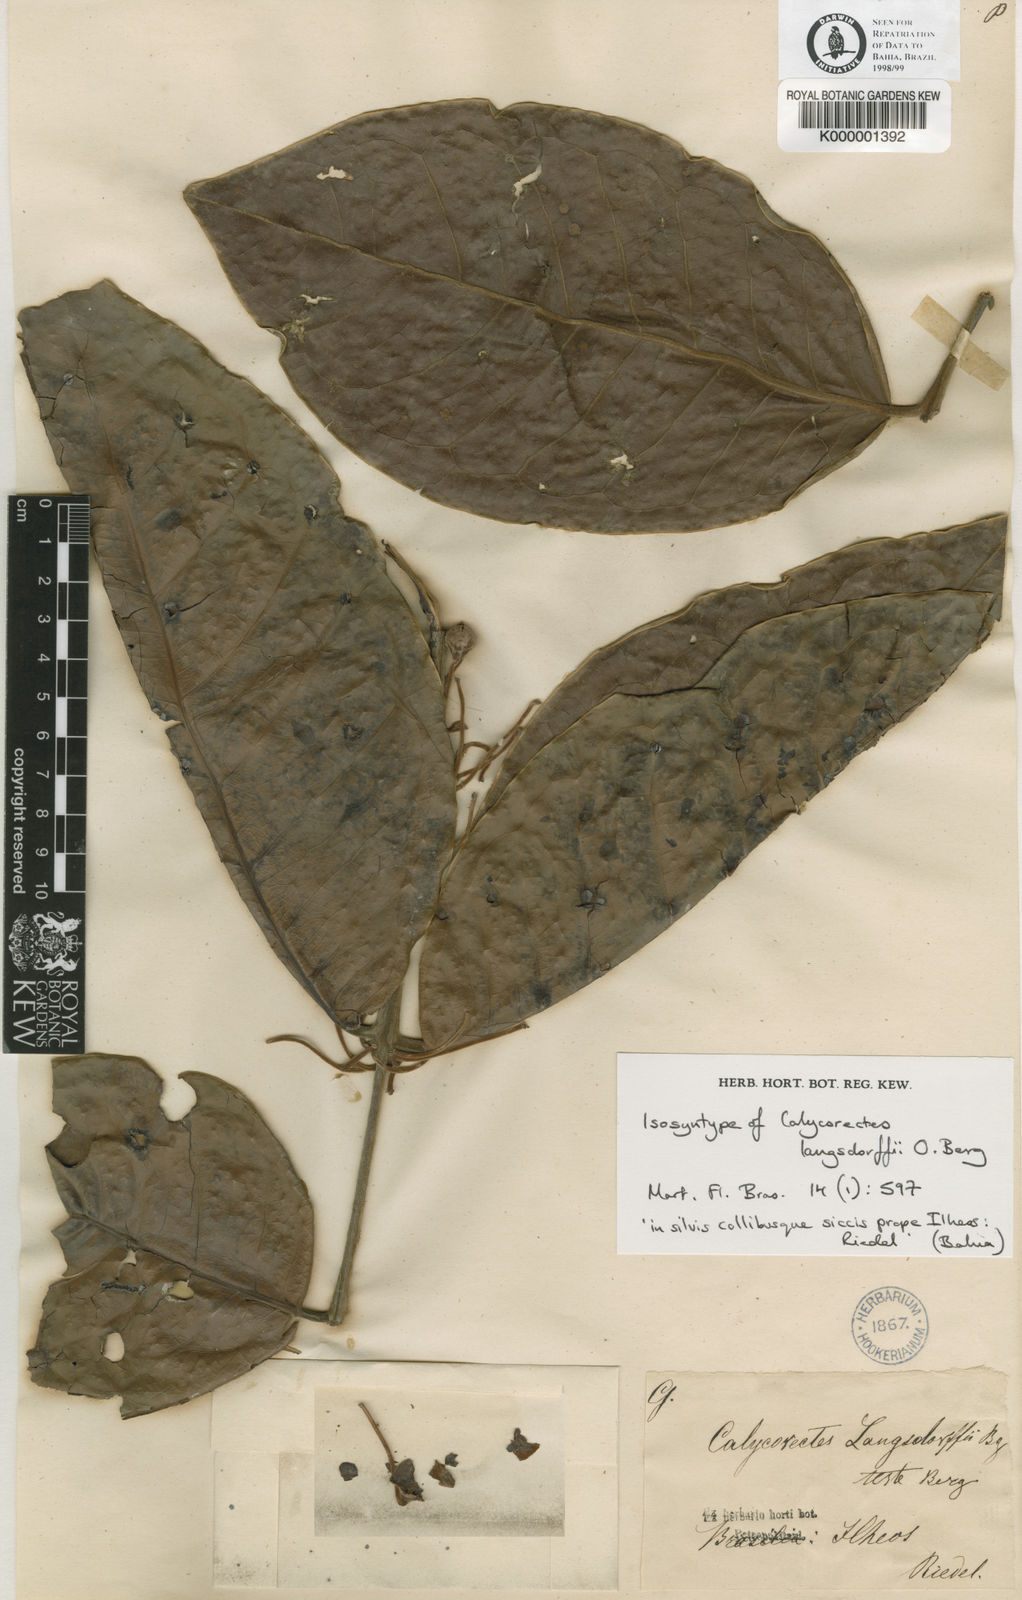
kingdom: Plantae
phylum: Tracheophyta
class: Magnoliopsida
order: Myrtales
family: Myrtaceae
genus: Calycorectes
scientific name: Calycorectes langsdorffii
